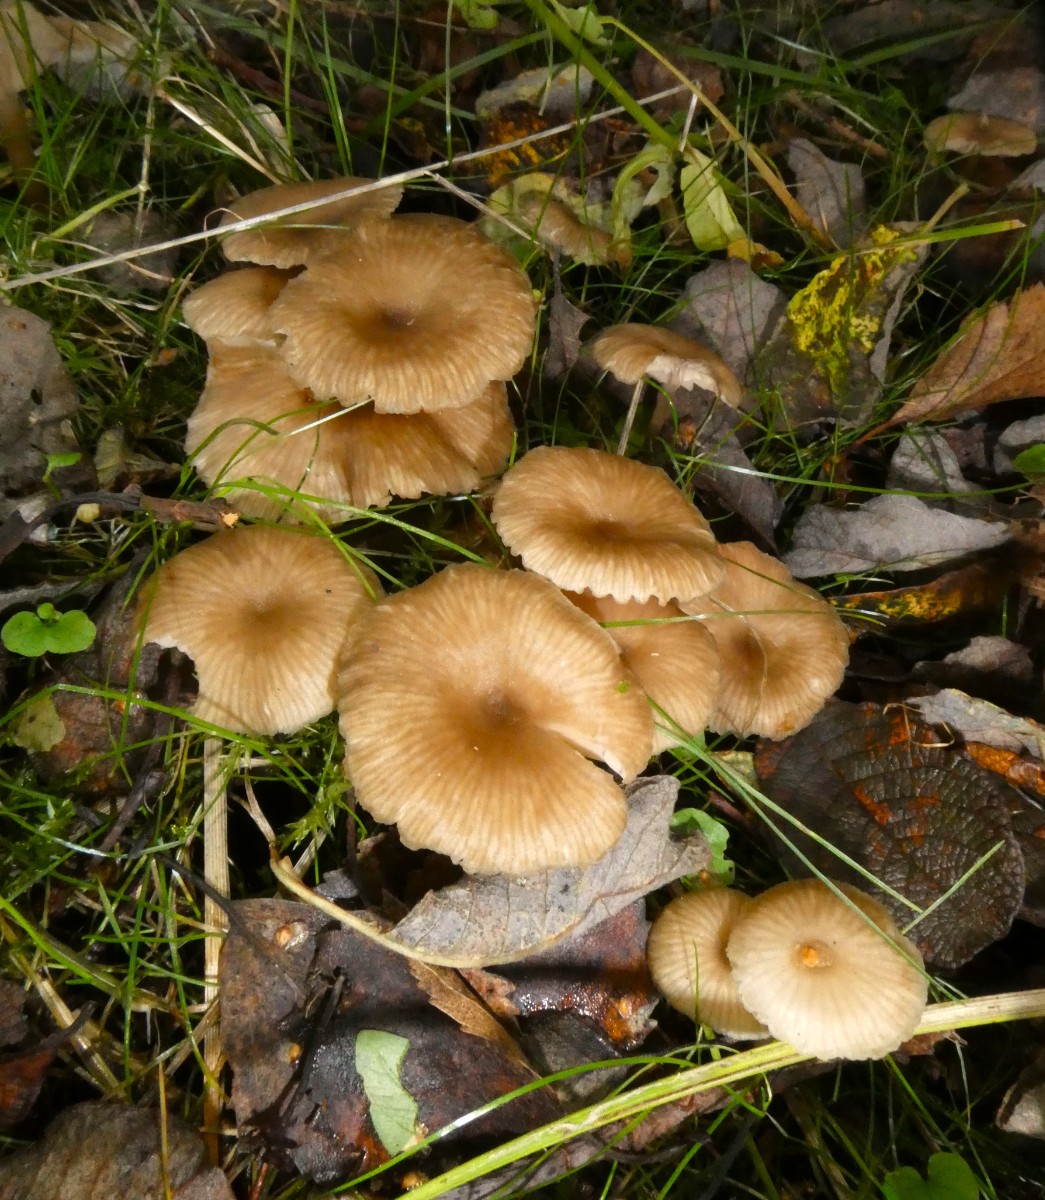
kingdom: Fungi
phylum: Basidiomycota
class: Agaricomycetes
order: Agaricales
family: Entolomataceae
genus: Entoloma
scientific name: Entoloma politum
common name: poleret rødblad
